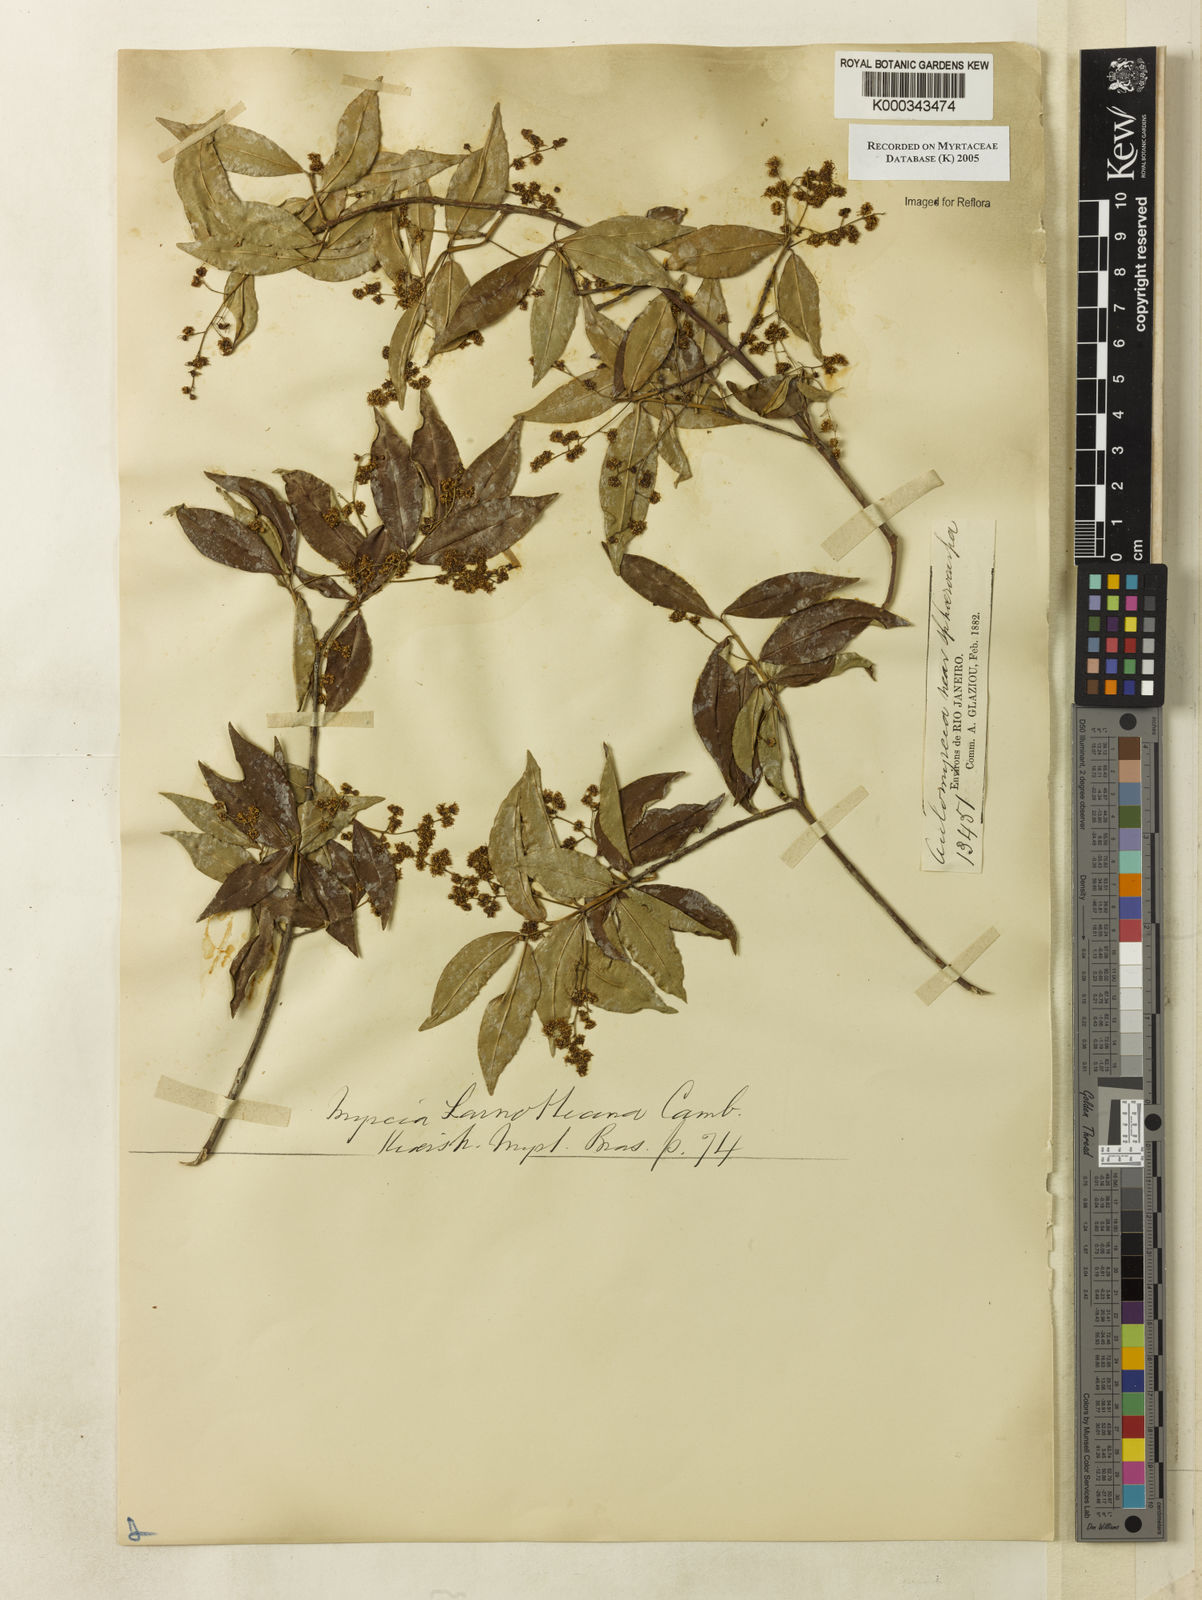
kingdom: Plantae
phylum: Tracheophyta
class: Magnoliopsida
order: Myrtales
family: Myrtaceae
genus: Myrcia
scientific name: Myrcia laruotteana
